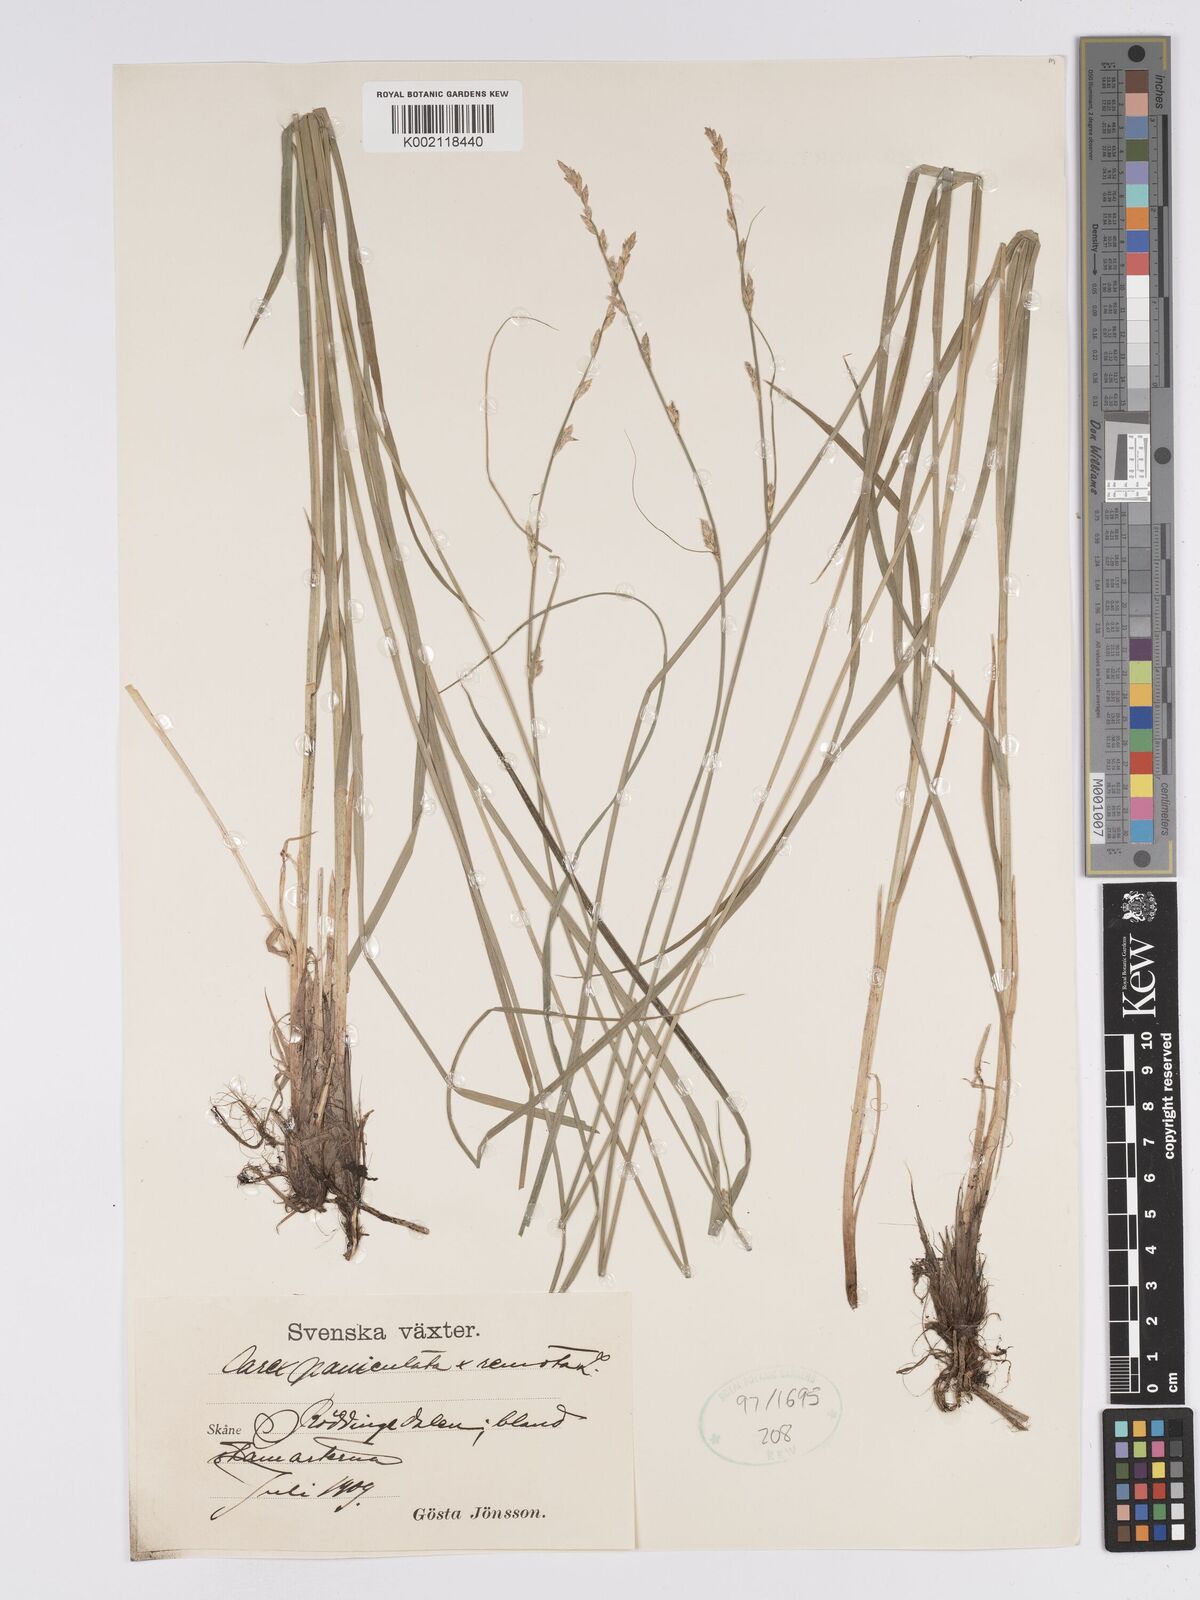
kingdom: Plantae
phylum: Tracheophyta
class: Liliopsida
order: Poales
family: Cyperaceae
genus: Carex
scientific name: Carex boenninghausiana
